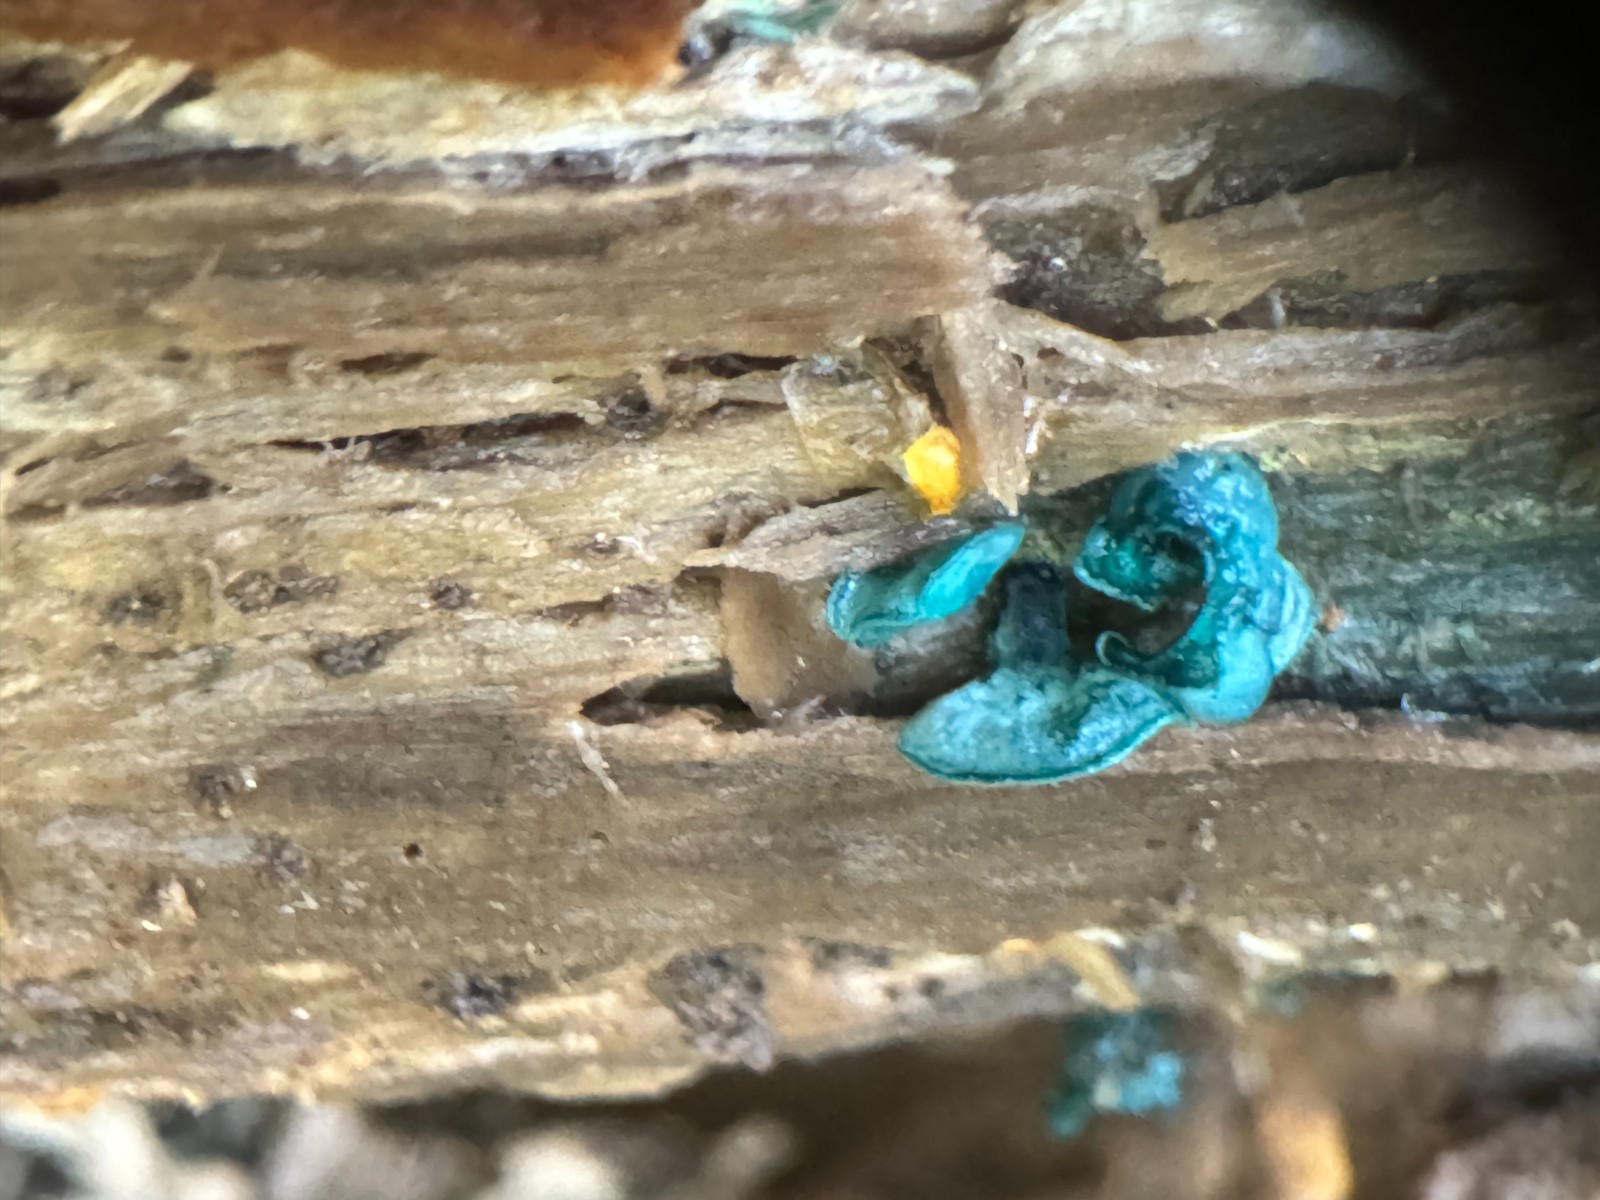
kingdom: Fungi
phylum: Ascomycota
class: Leotiomycetes
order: Helotiales
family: Chlorociboriaceae
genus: Chlorociboria
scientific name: Chlorociboria aeruginascens
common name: almindelig grønskive
